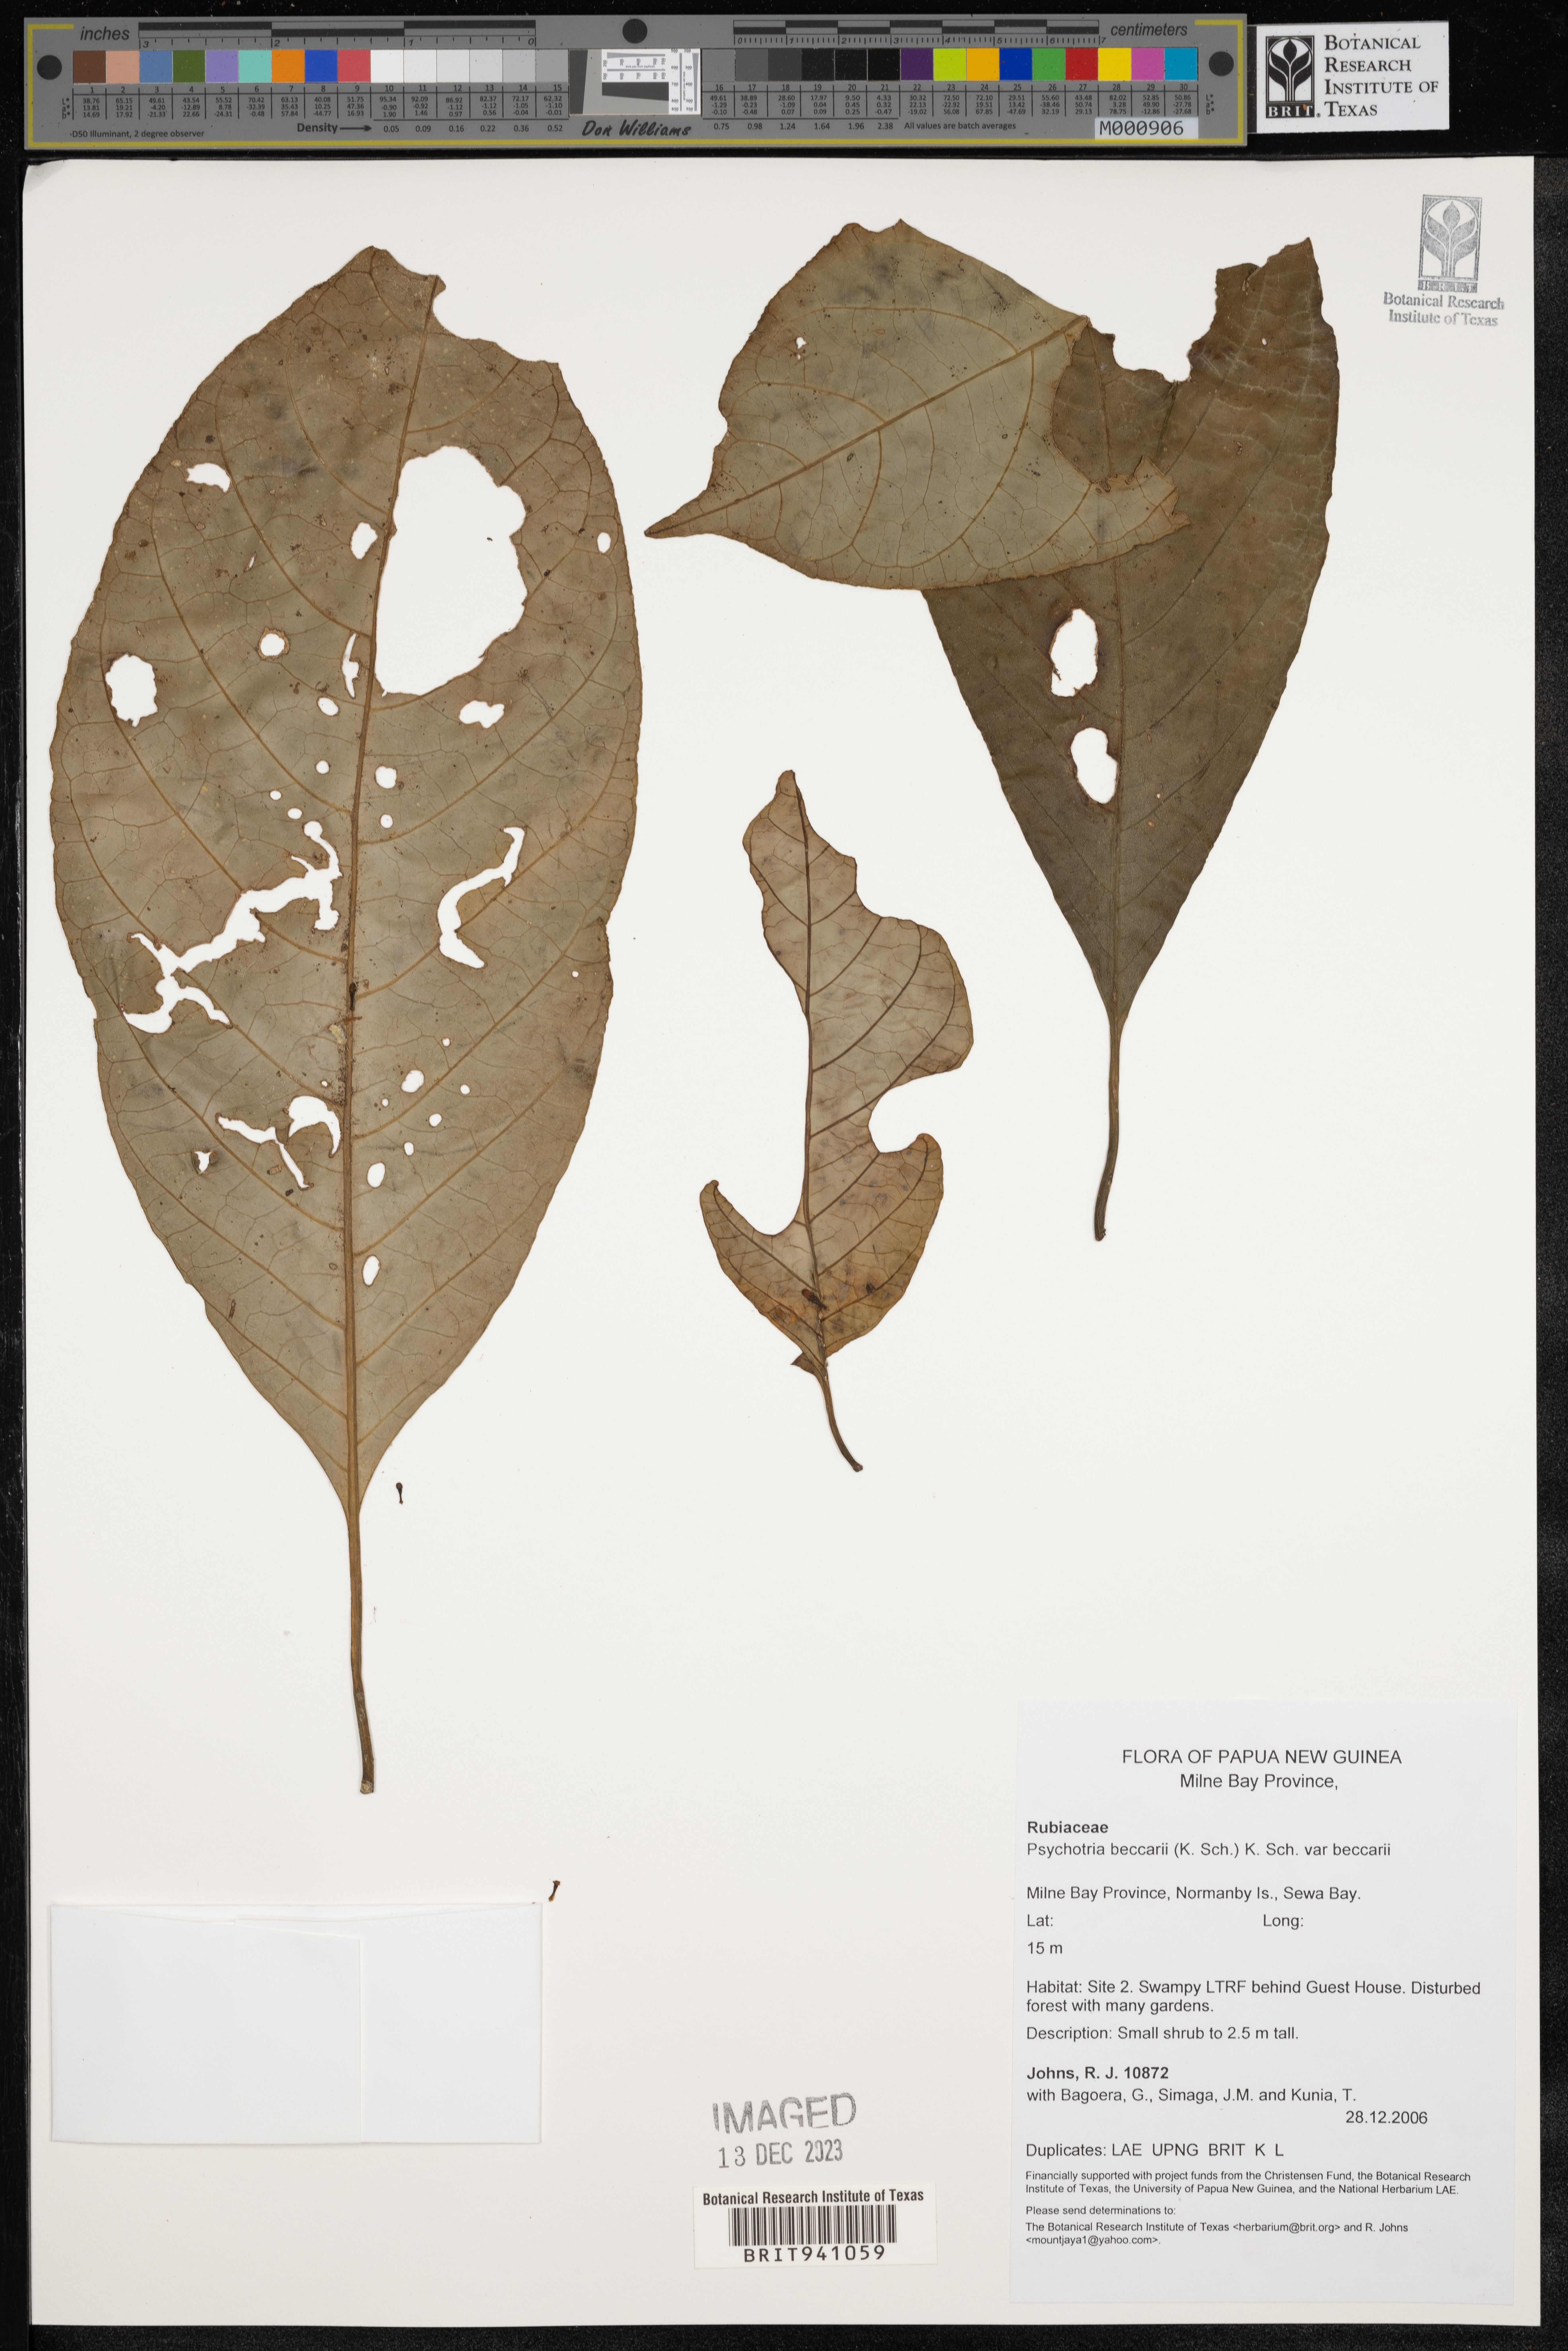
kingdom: Plantae
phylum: Tracheophyta
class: Magnoliopsida
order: Gentianales
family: Rubiaceae
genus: Psychotria
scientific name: Psychotria
